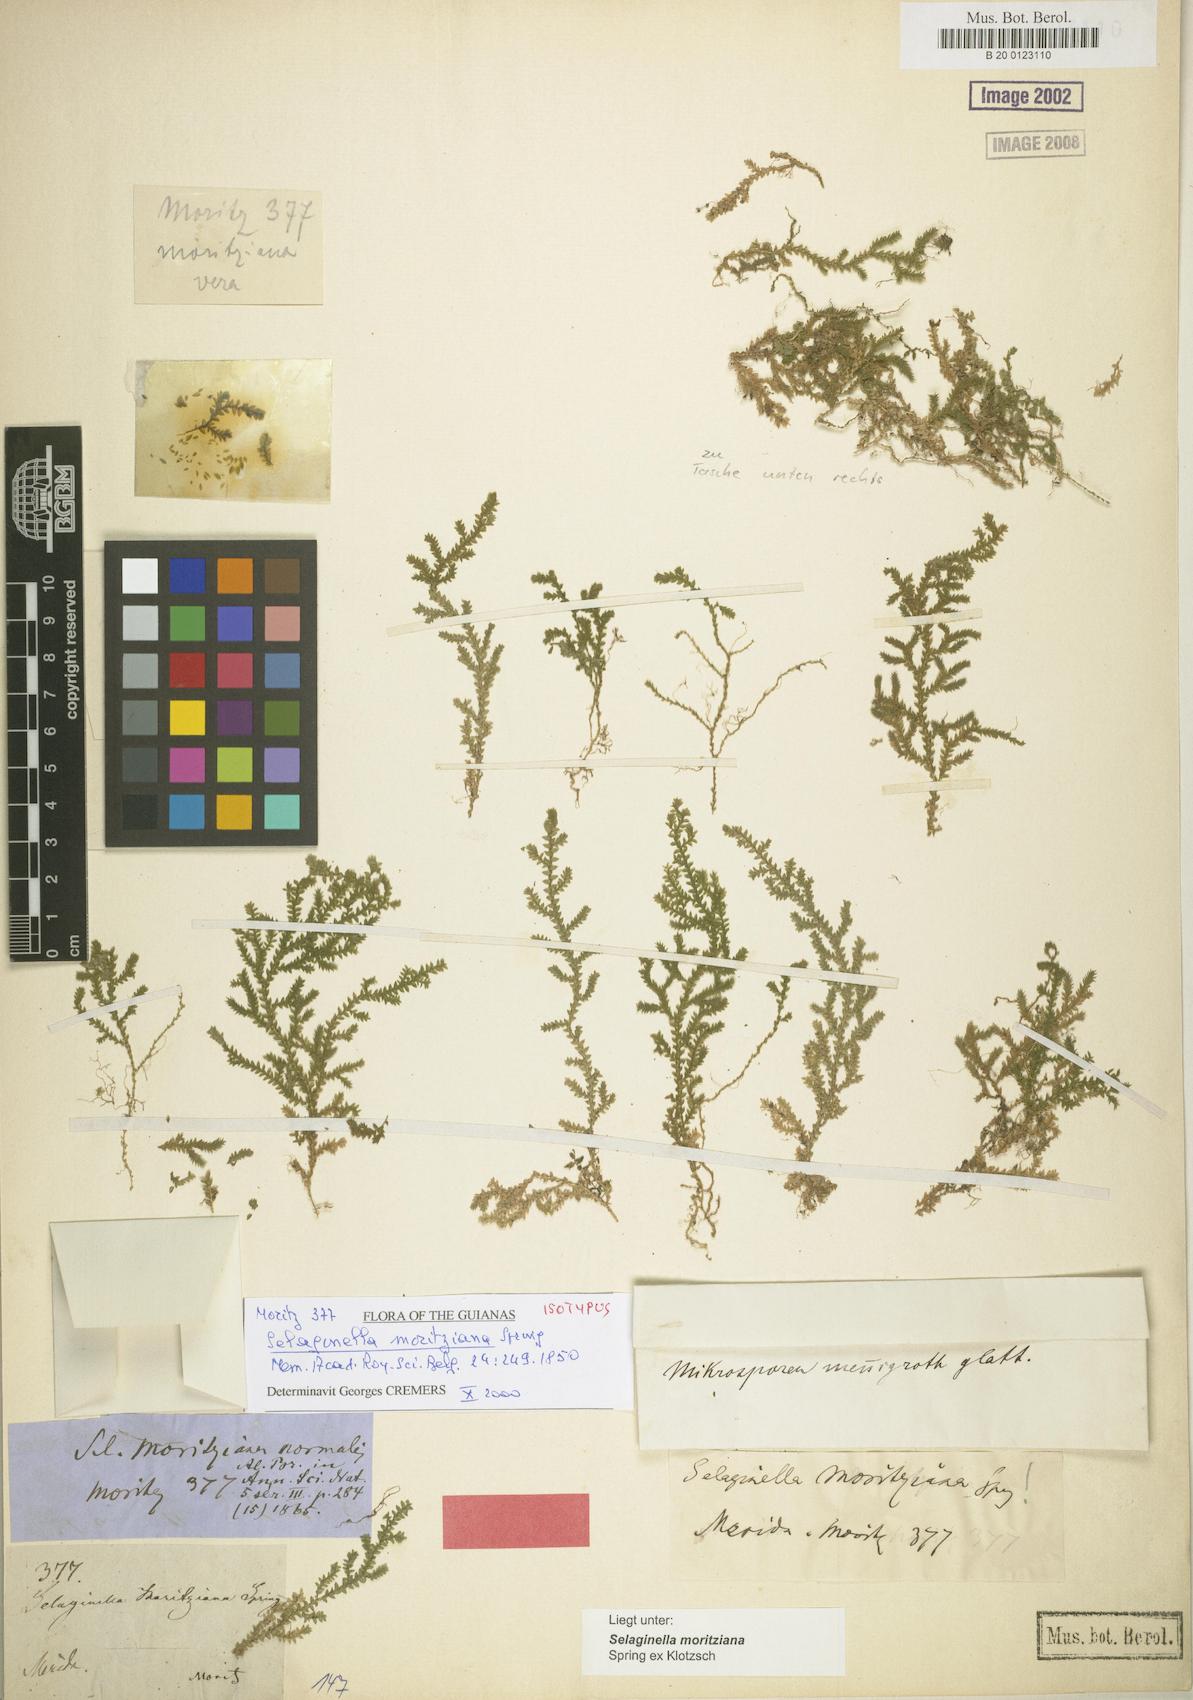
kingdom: Plantae
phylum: Tracheophyta
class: Lycopodiopsida
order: Selaginellales
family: Selaginellaceae
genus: Selaginella
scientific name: Selaginella moritziana
